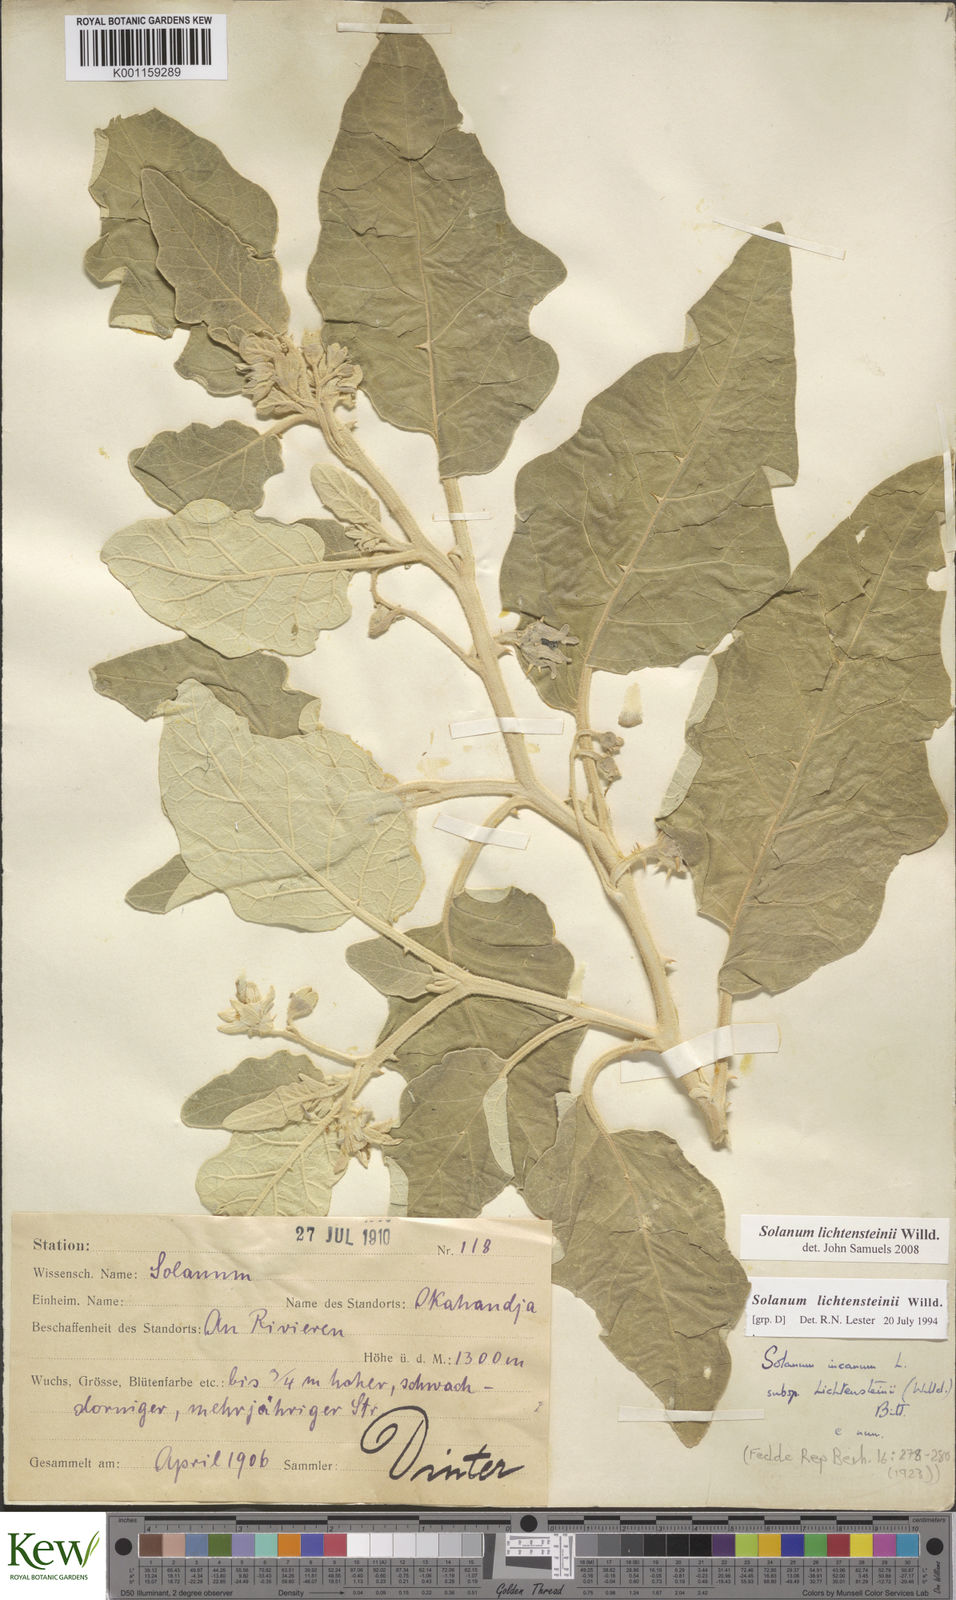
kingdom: Plantae
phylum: Tracheophyta
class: Magnoliopsida
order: Solanales
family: Solanaceae
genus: Solanum
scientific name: Solanum lichtensteinii
